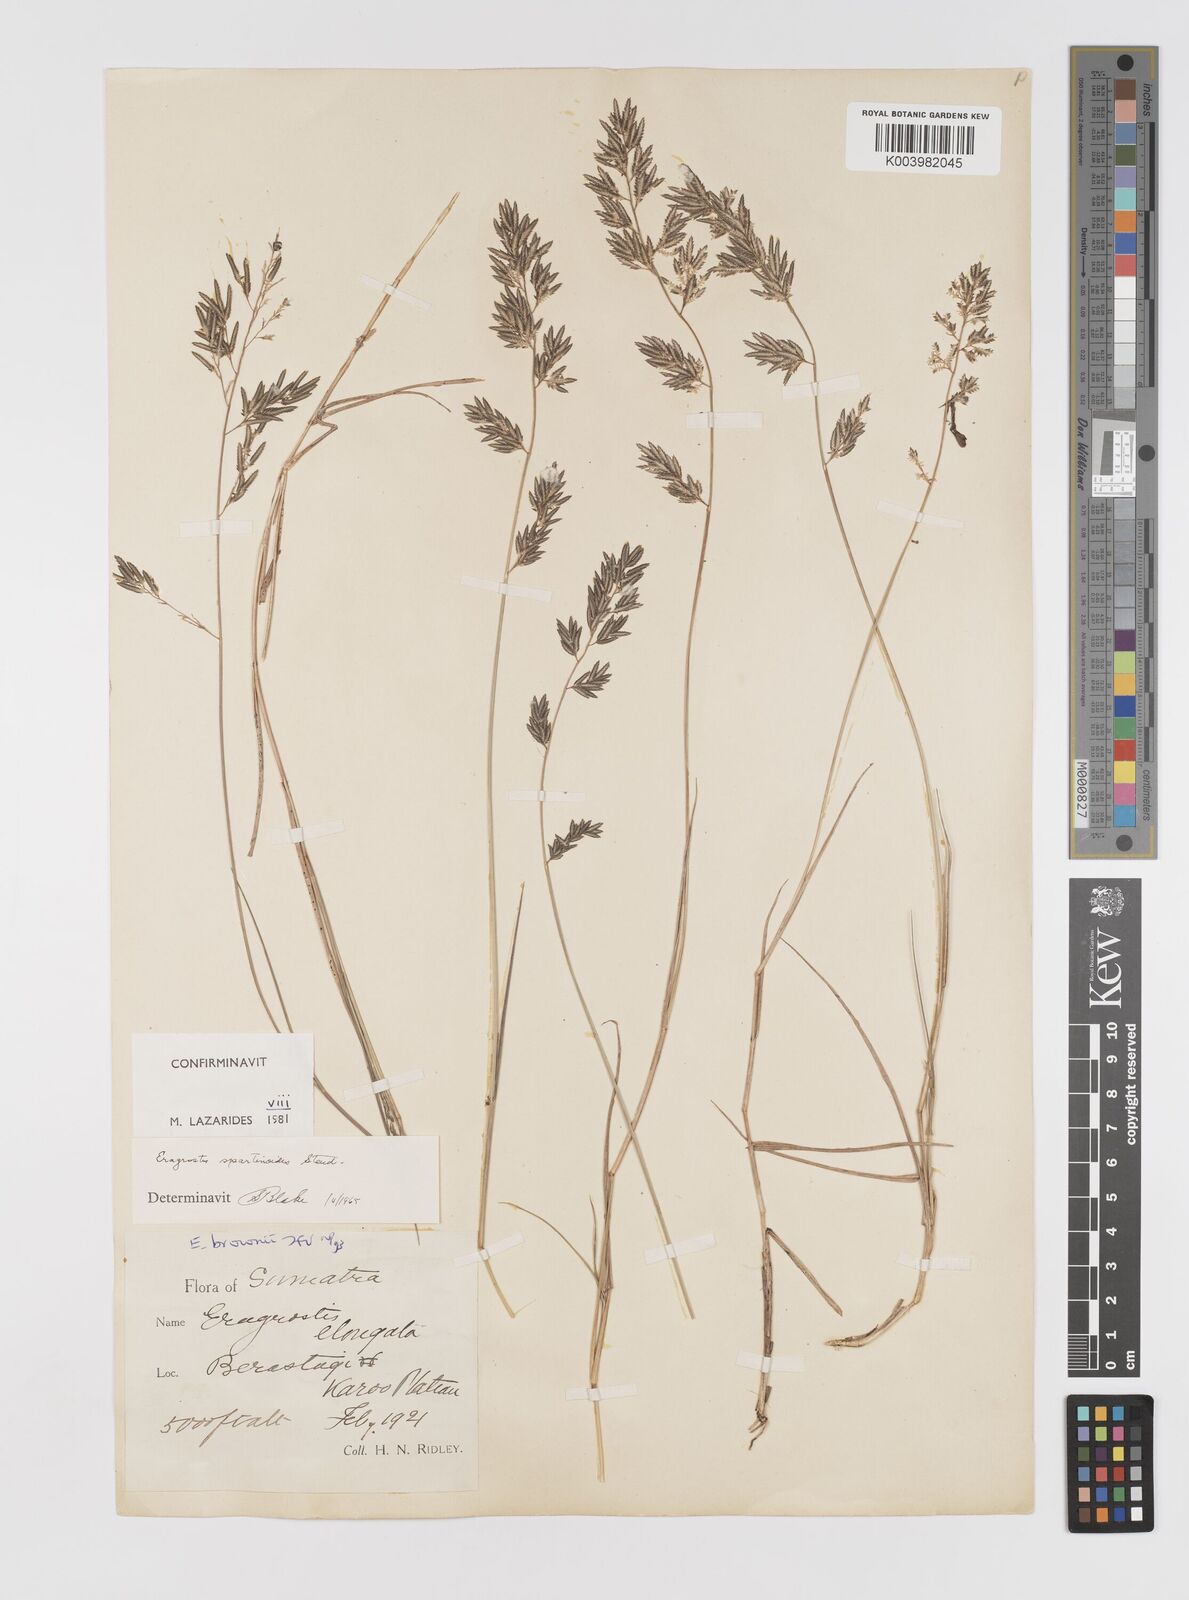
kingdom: Plantae
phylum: Tracheophyta
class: Liliopsida
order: Poales
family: Poaceae
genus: Eragrostis
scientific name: Eragrostis brownii
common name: Lovegrass
